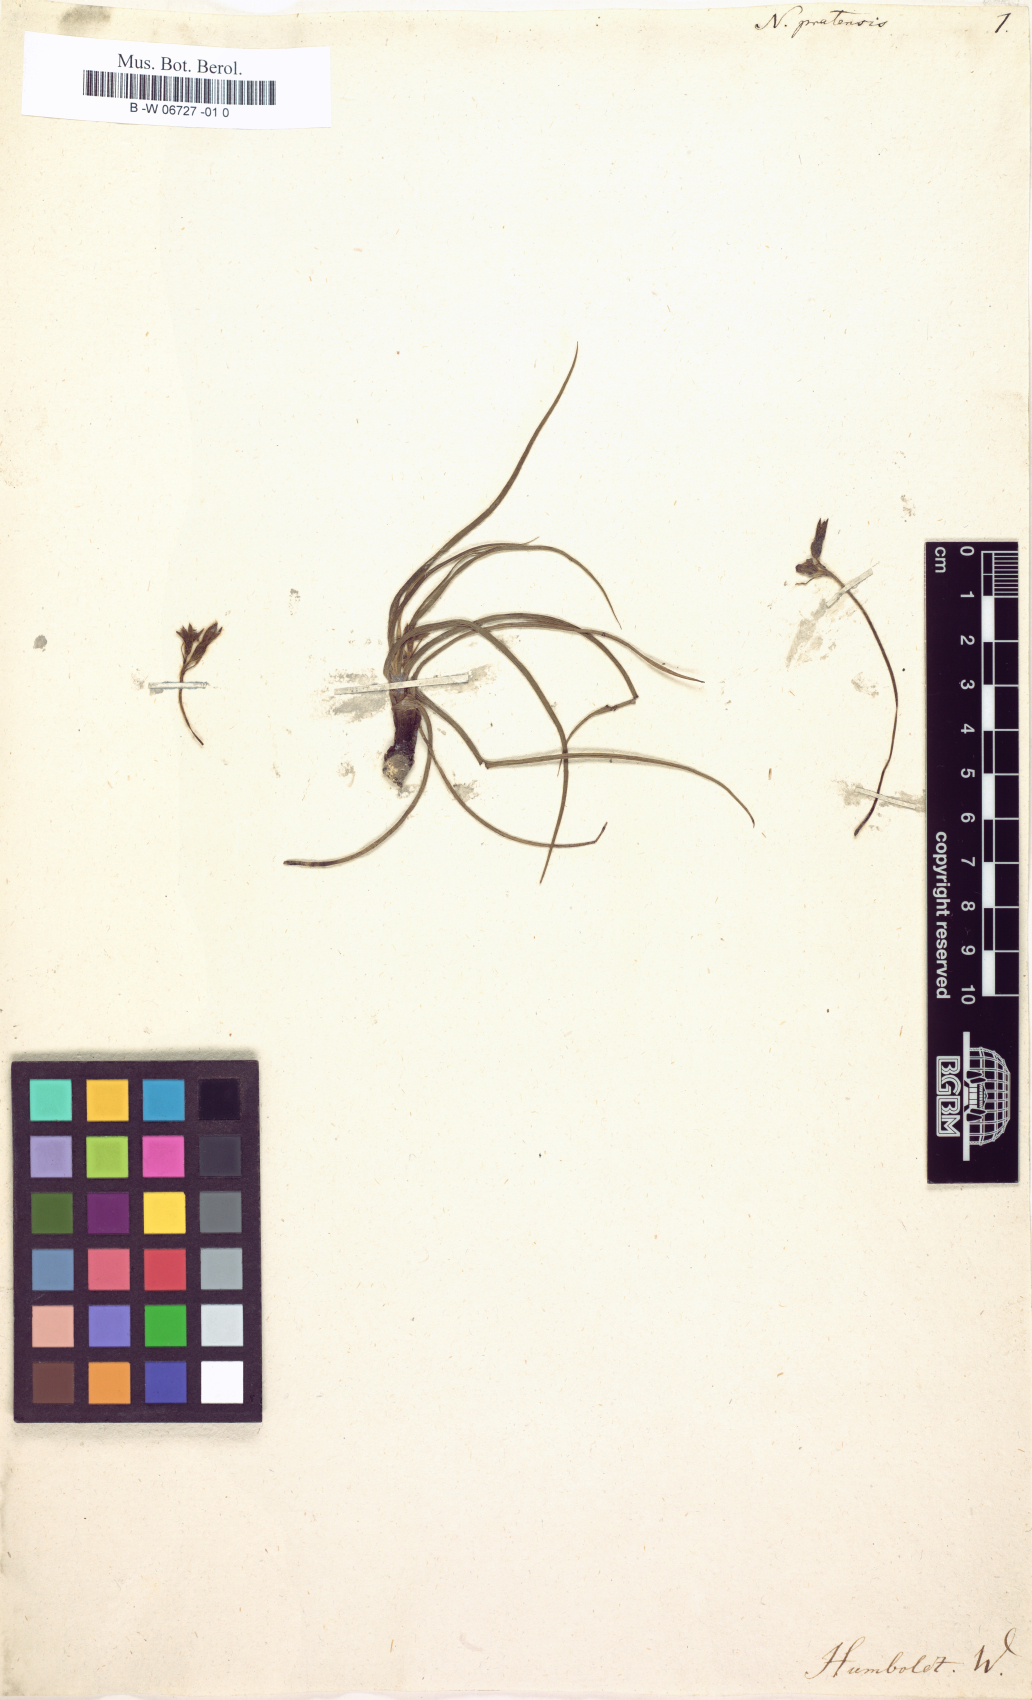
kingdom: Plantae
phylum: Tracheophyta
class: Liliopsida
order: Asparagales
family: Hypoxidaceae
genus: Hypoxis
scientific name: Hypoxis decumbens
